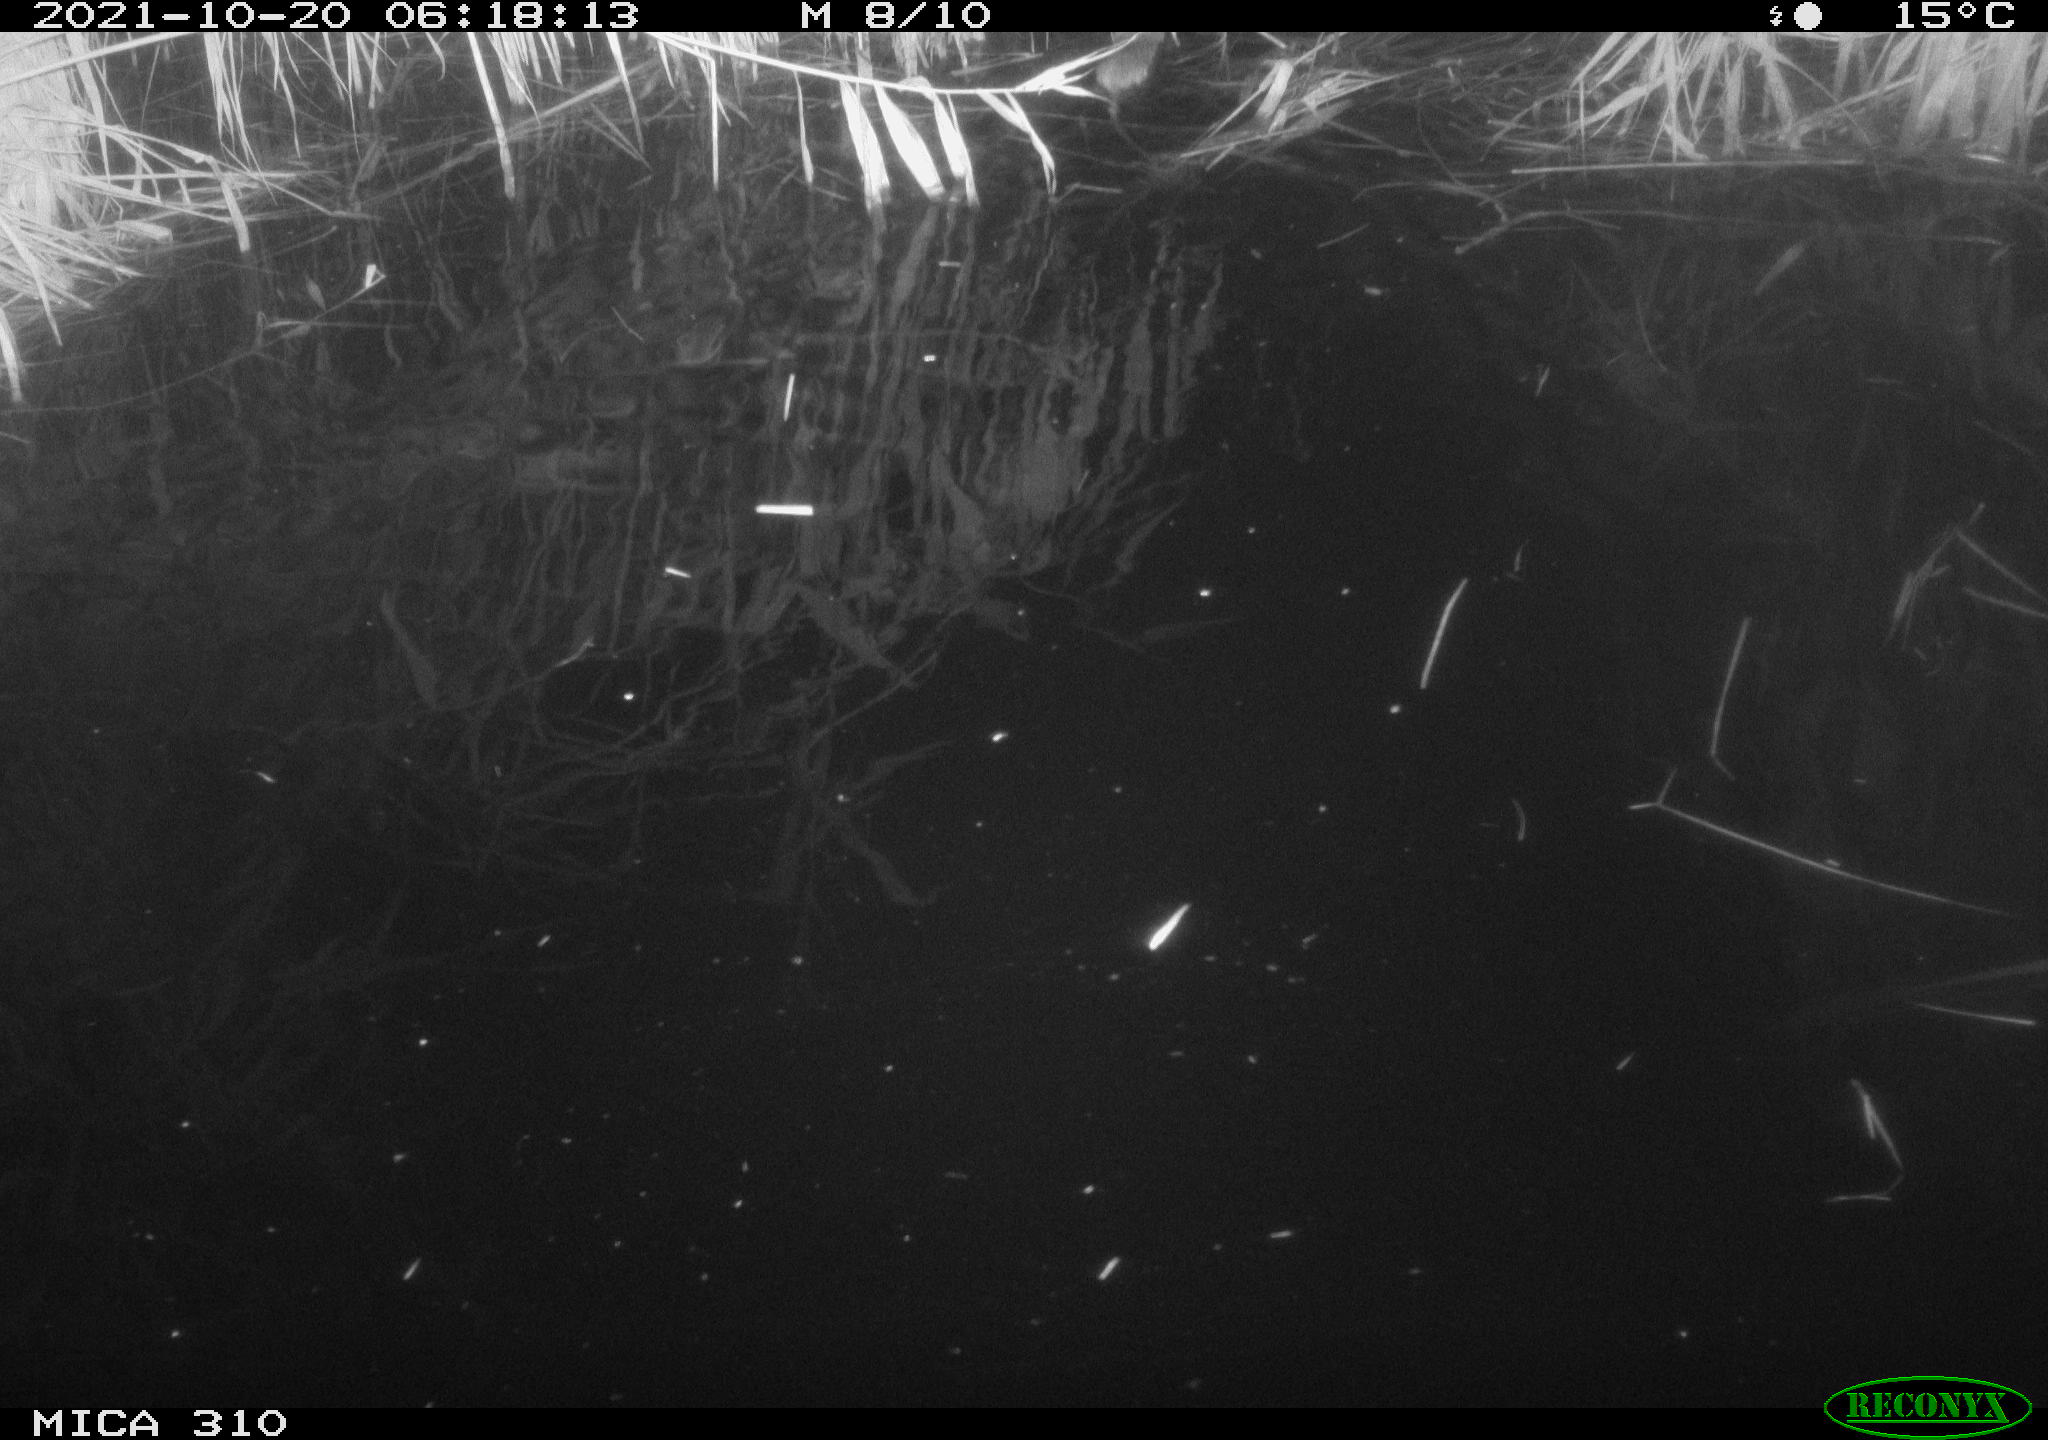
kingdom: Animalia
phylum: Chordata
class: Mammalia
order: Rodentia
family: Muridae
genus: Rattus
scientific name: Rattus norvegicus
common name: Brown rat
